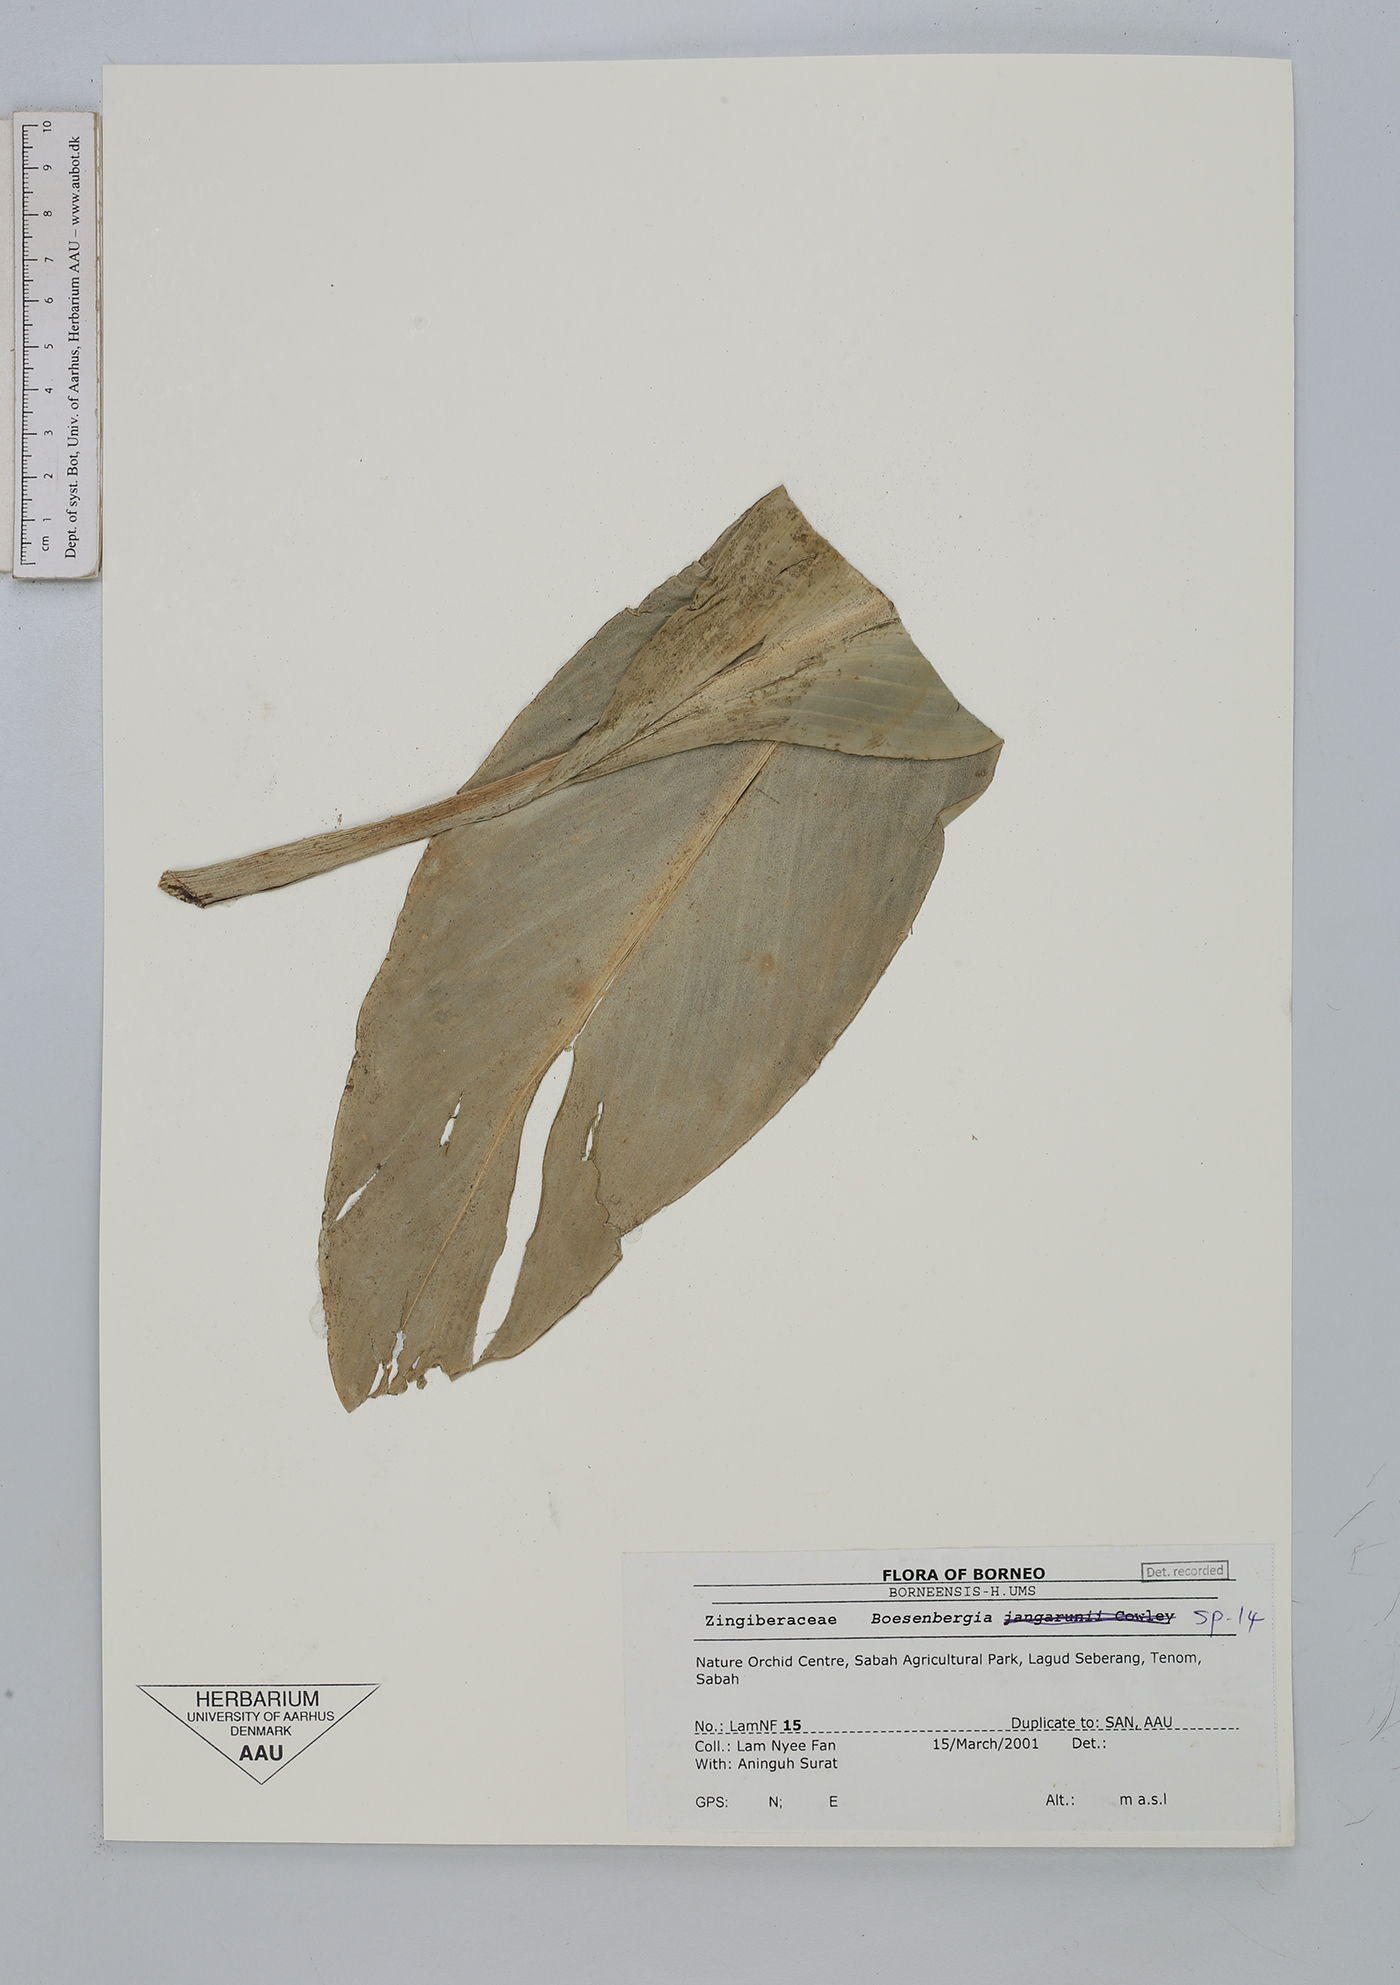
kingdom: Plantae
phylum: Tracheophyta
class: Liliopsida
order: Zingiberales
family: Zingiberaceae
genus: Boesenbergia
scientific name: Boesenbergia
